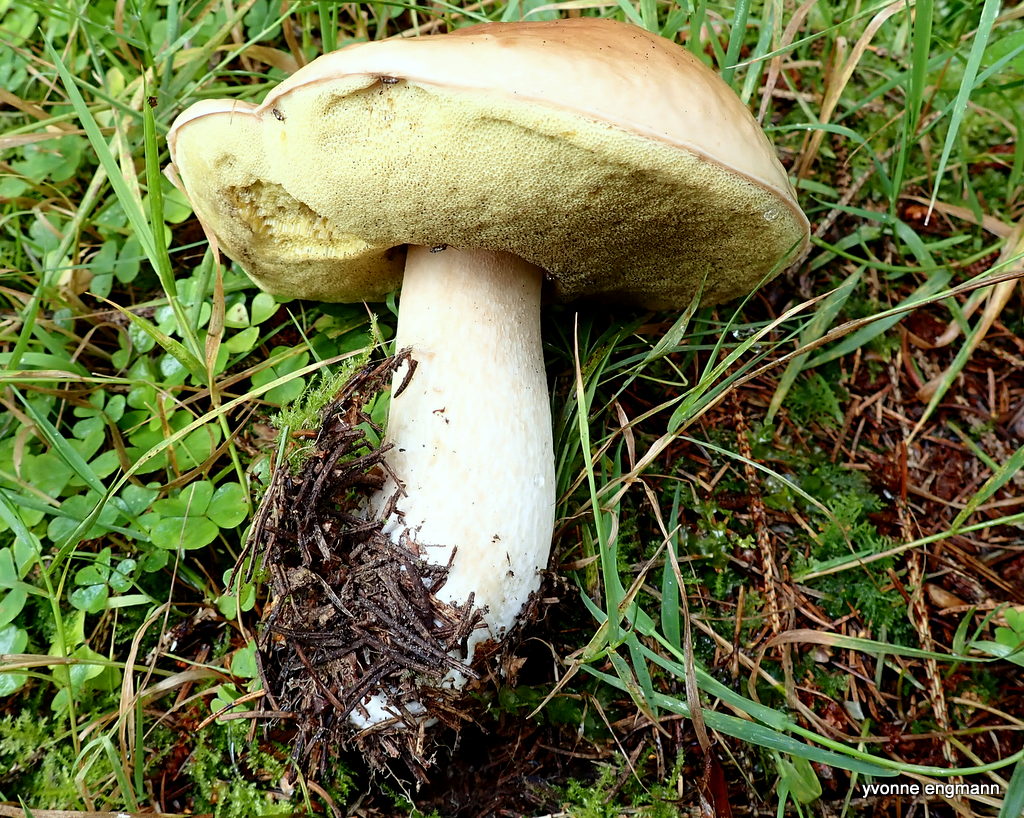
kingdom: Fungi
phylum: Basidiomycota
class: Agaricomycetes
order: Boletales
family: Boletaceae
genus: Boletus
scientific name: Boletus edulis
